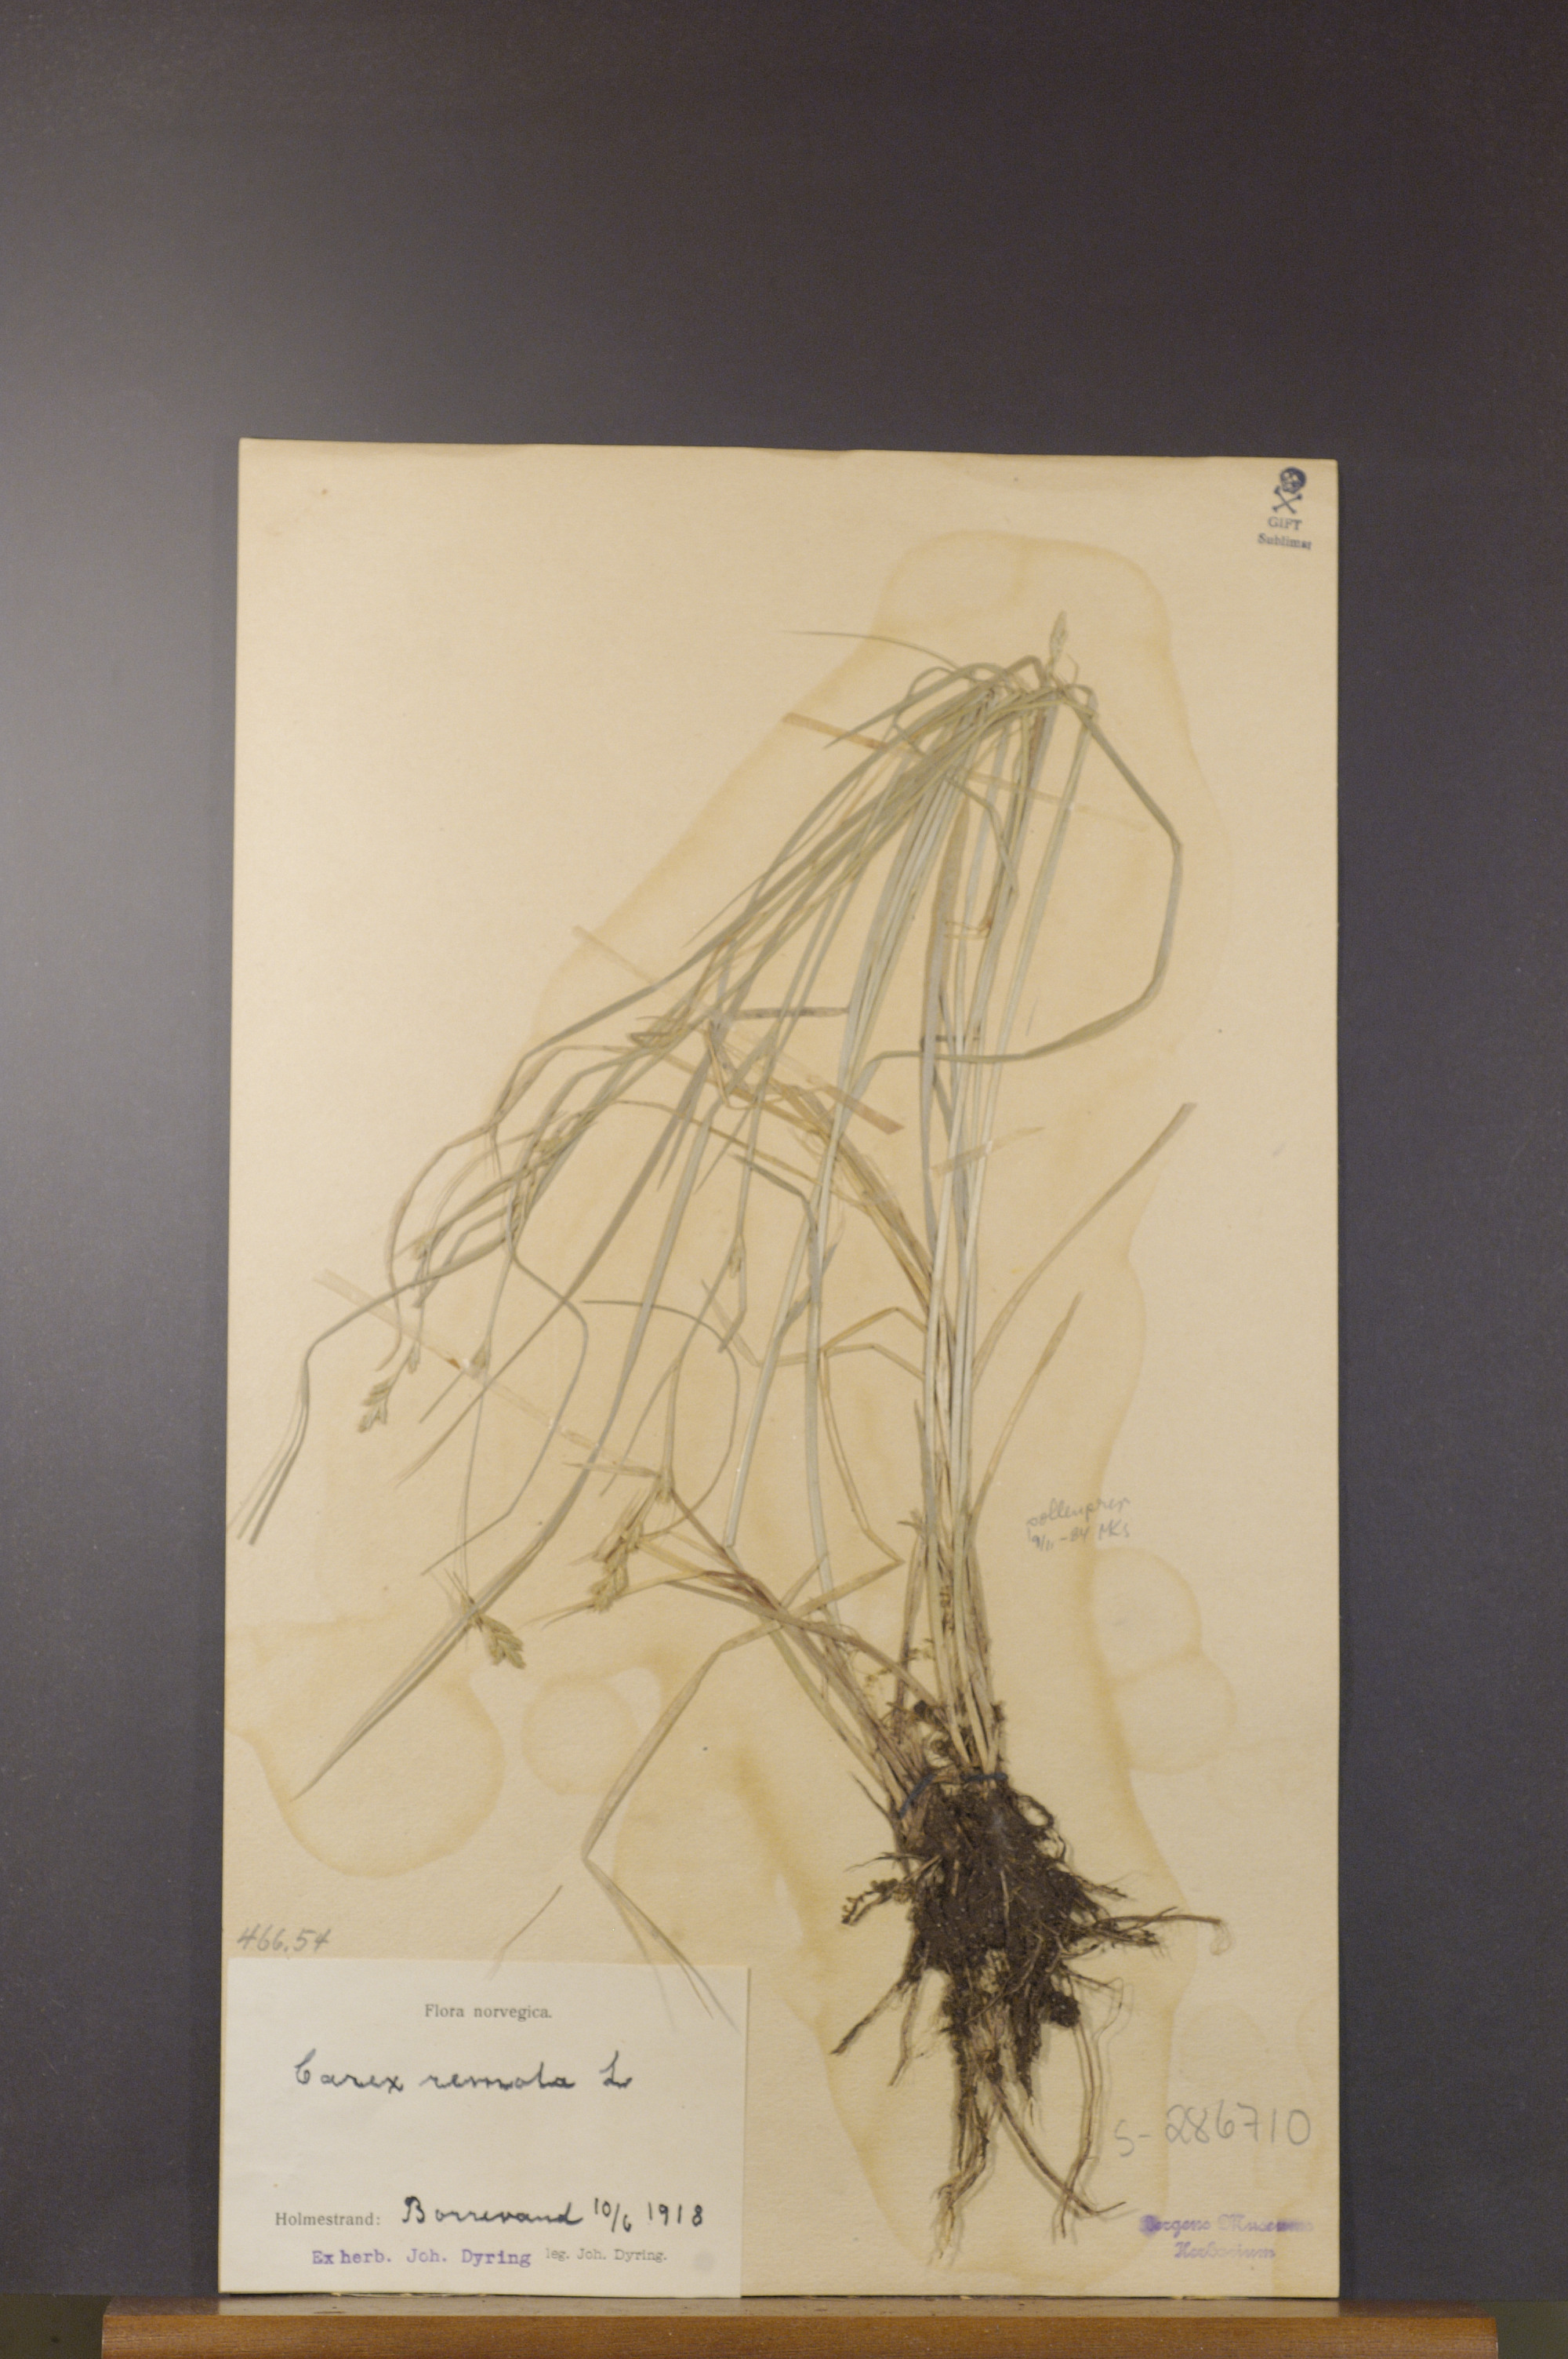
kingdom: Plantae
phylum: Tracheophyta
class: Liliopsida
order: Poales
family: Cyperaceae
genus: Carex
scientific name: Carex remota
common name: Remote sedge
